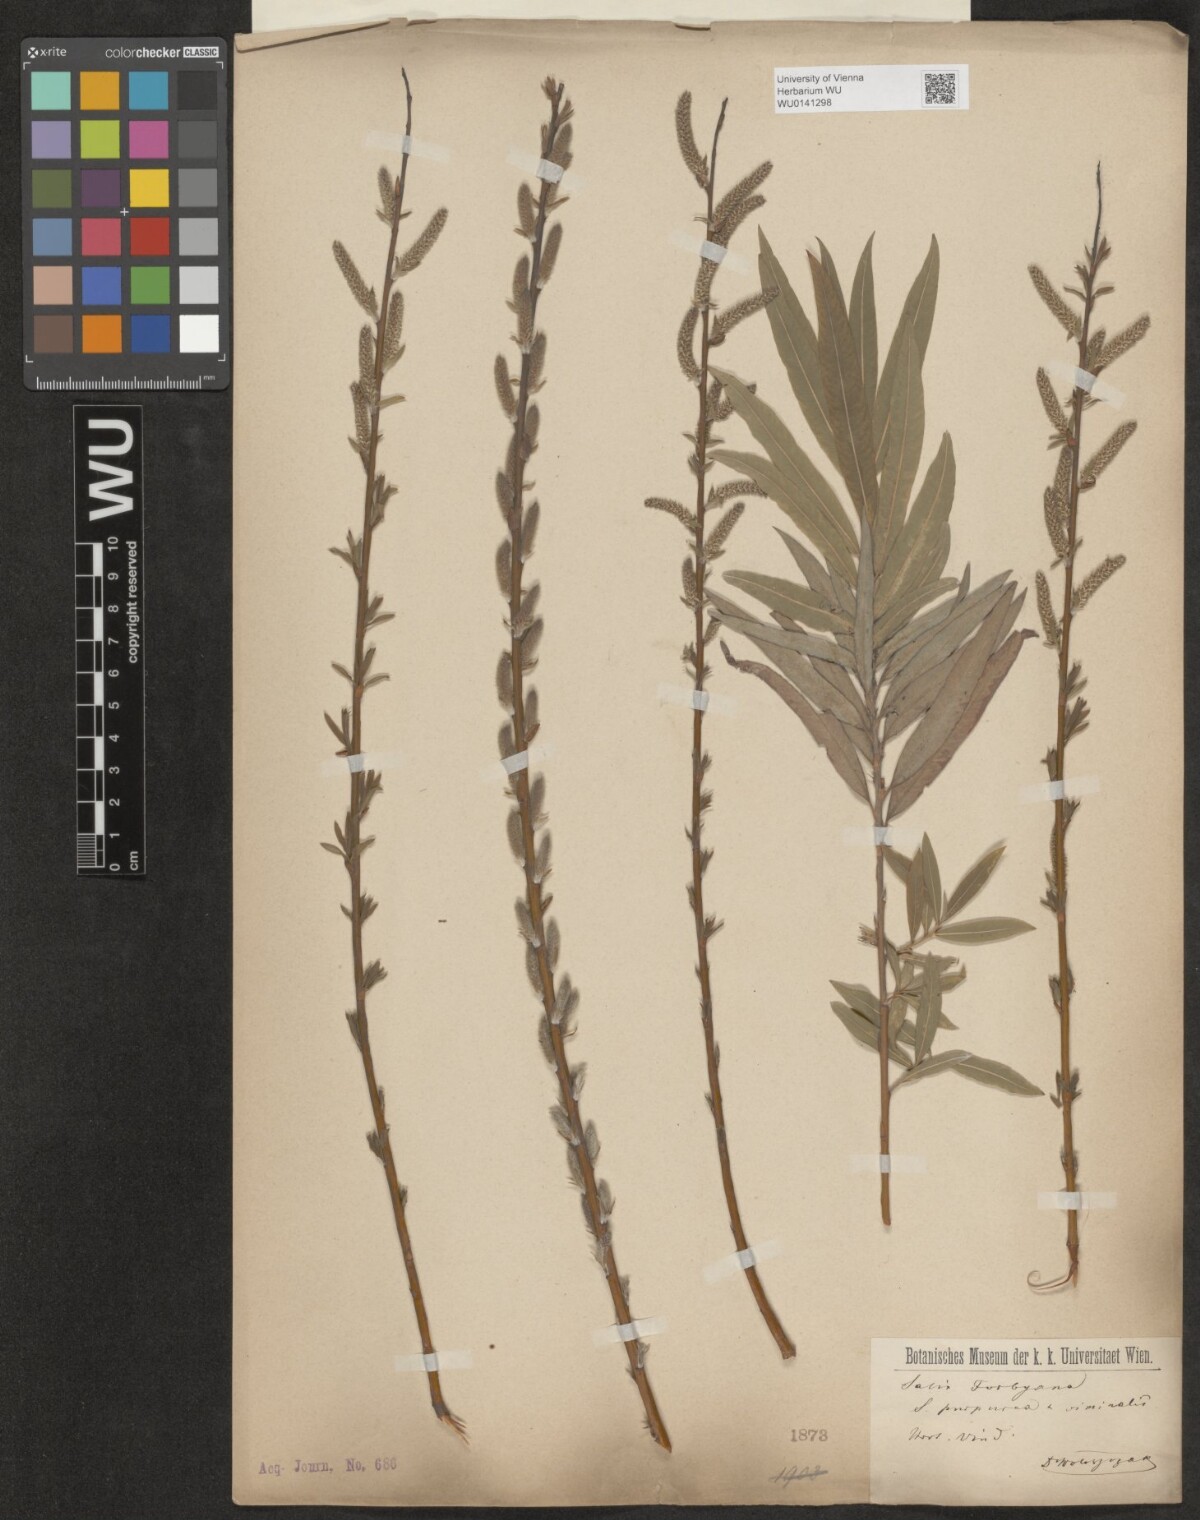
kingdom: Plantae
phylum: Tracheophyta
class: Magnoliopsida
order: Malpighiales
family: Salicaceae
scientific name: Salicaceae
